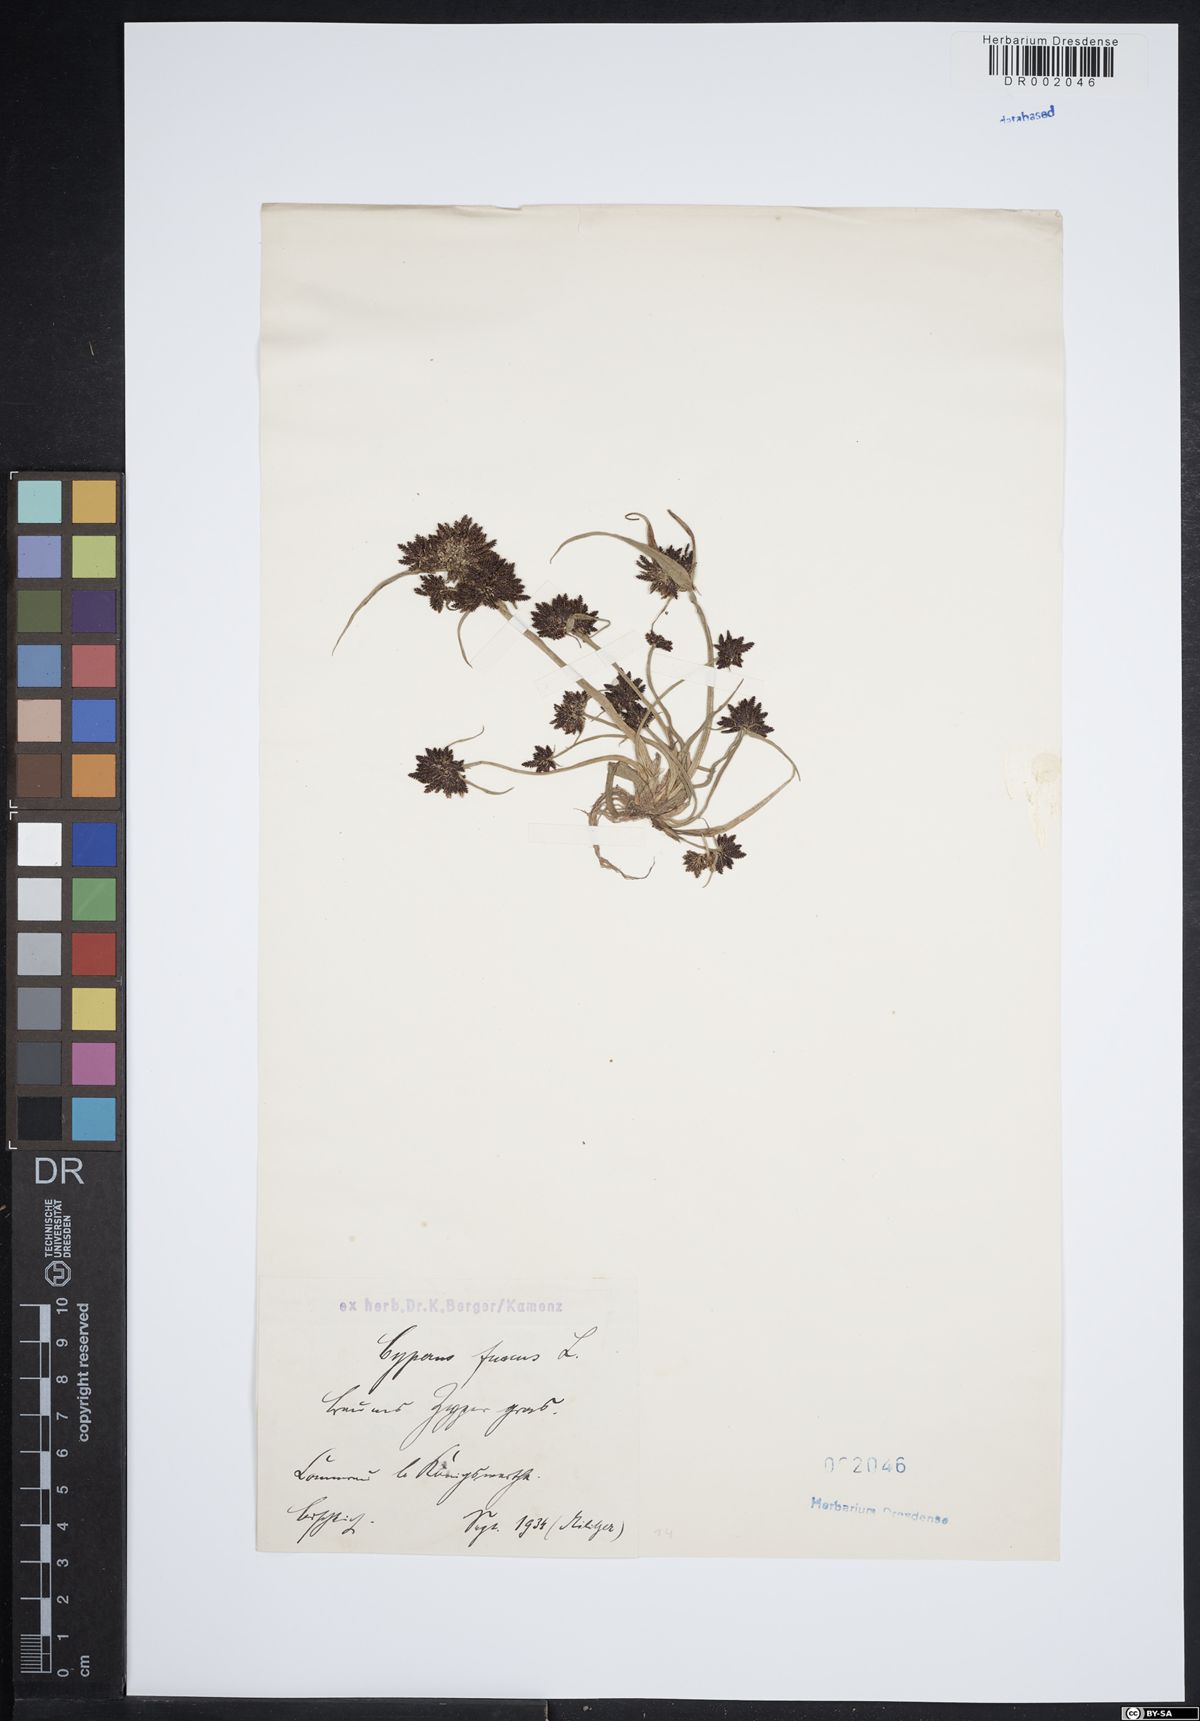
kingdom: Plantae
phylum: Tracheophyta
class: Liliopsida
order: Poales
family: Cyperaceae
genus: Cyperus
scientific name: Cyperus fuscus
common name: Brown galingale
